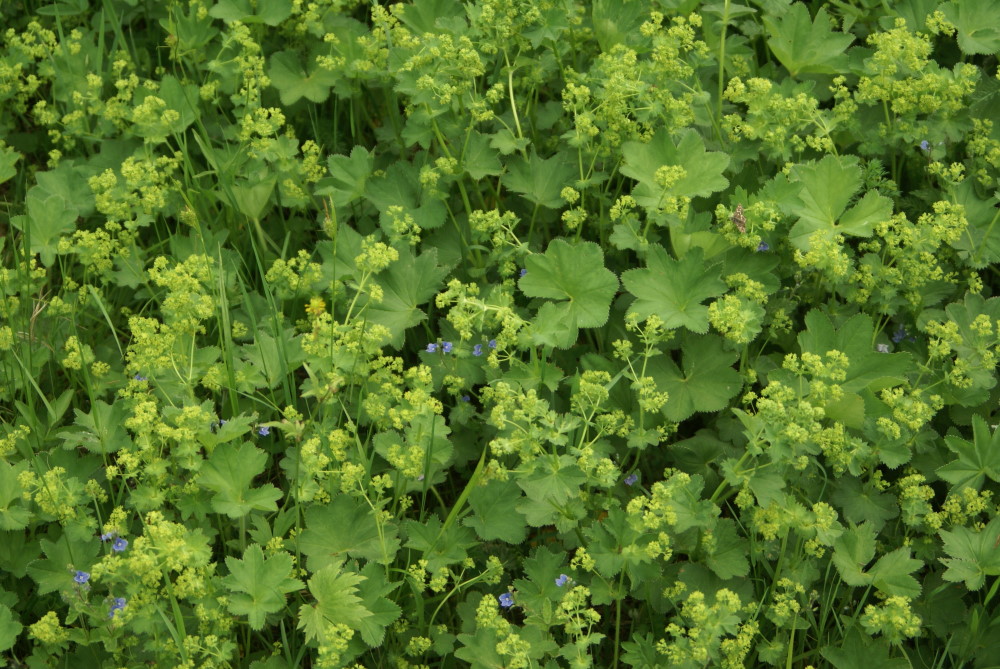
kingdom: Plantae
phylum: Tracheophyta
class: Magnoliopsida
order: Rosales
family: Rosaceae
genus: Alchemilla
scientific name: Alchemilla xanthochlora
